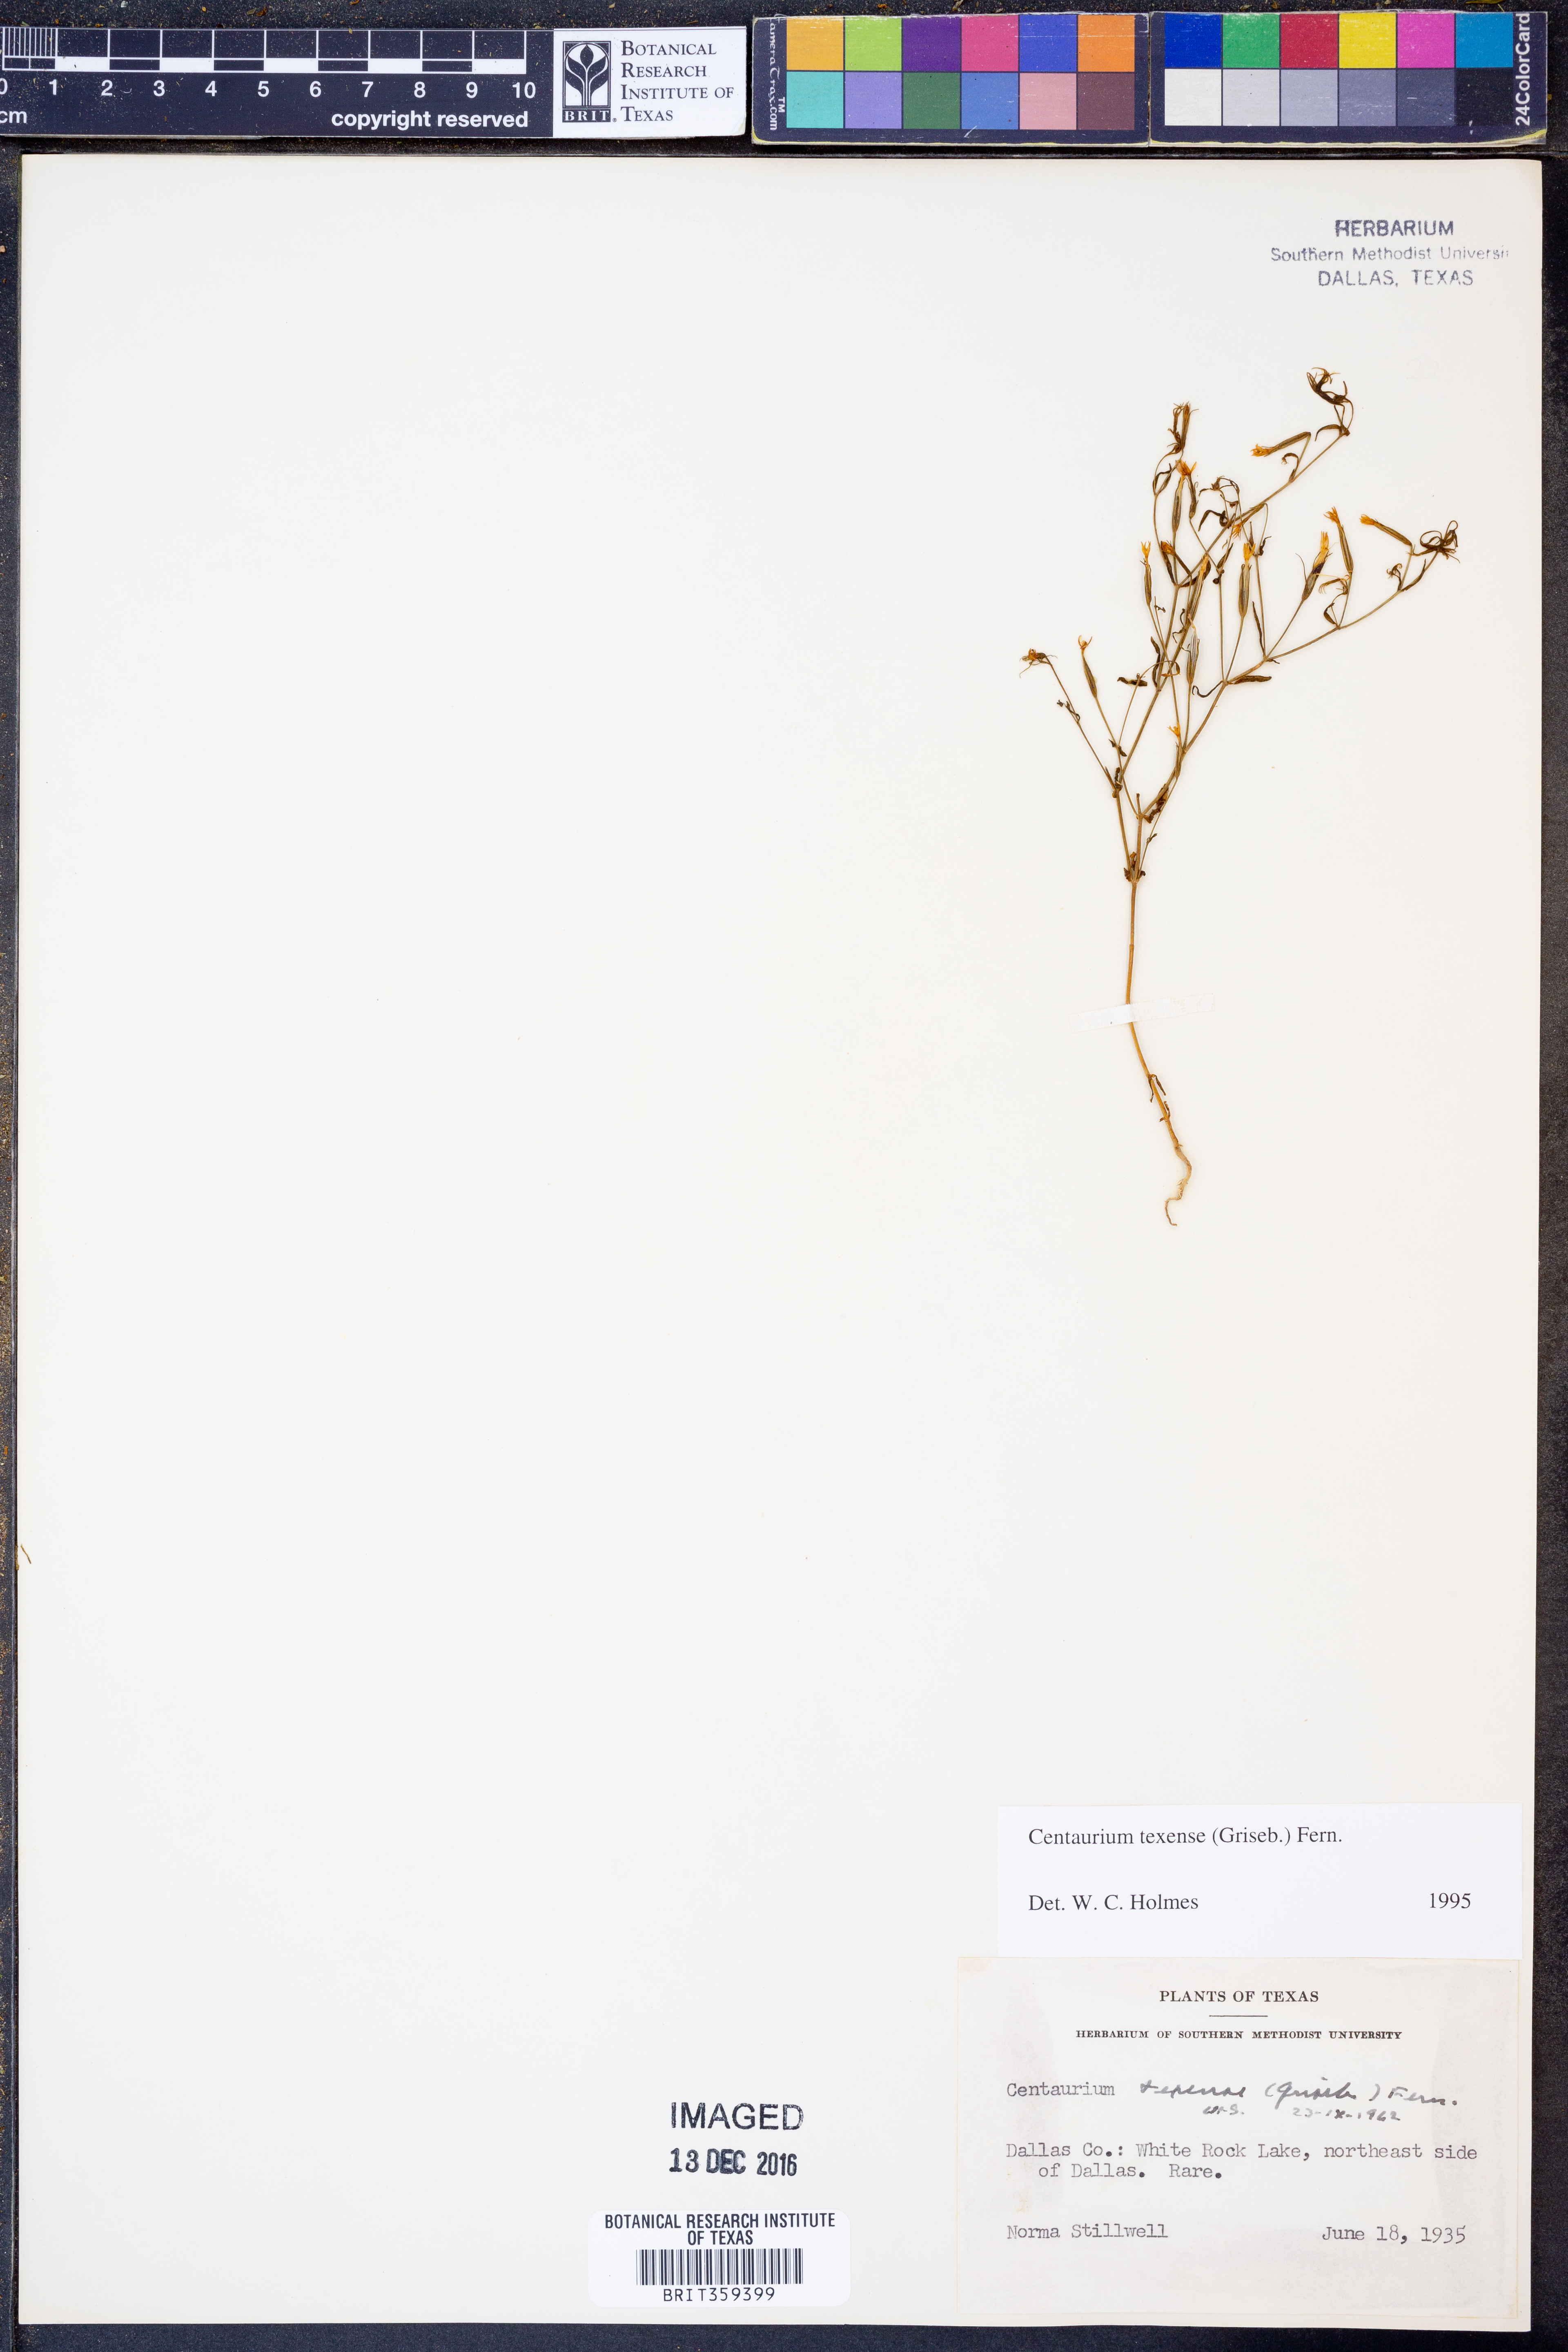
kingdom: Plantae
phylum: Tracheophyta
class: Magnoliopsida
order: Gentianales
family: Gentianaceae
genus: Zeltnera
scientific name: Zeltnera texensis
